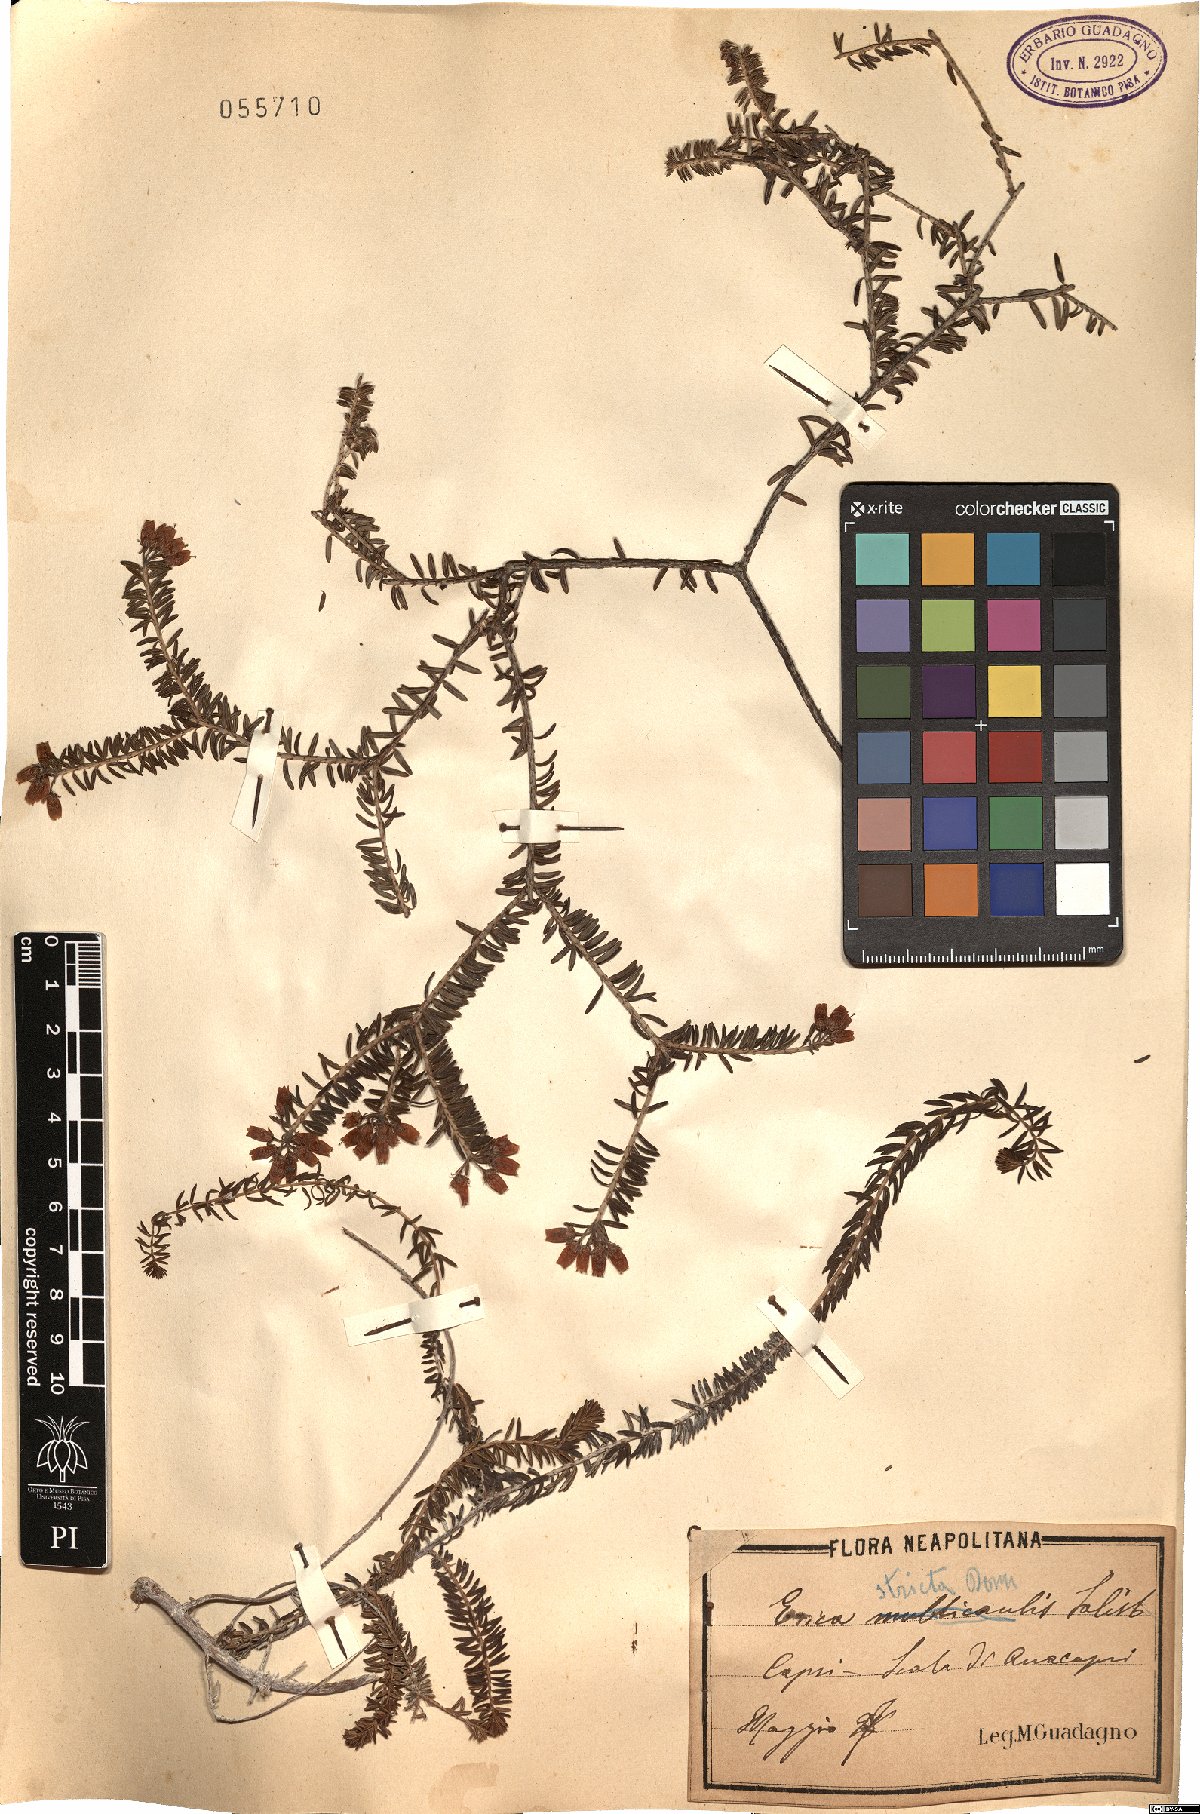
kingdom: Plantae
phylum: Tracheophyta
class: Magnoliopsida
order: Ericales
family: Ericaceae
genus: Erica
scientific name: Erica terminalis
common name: Corsican heath
